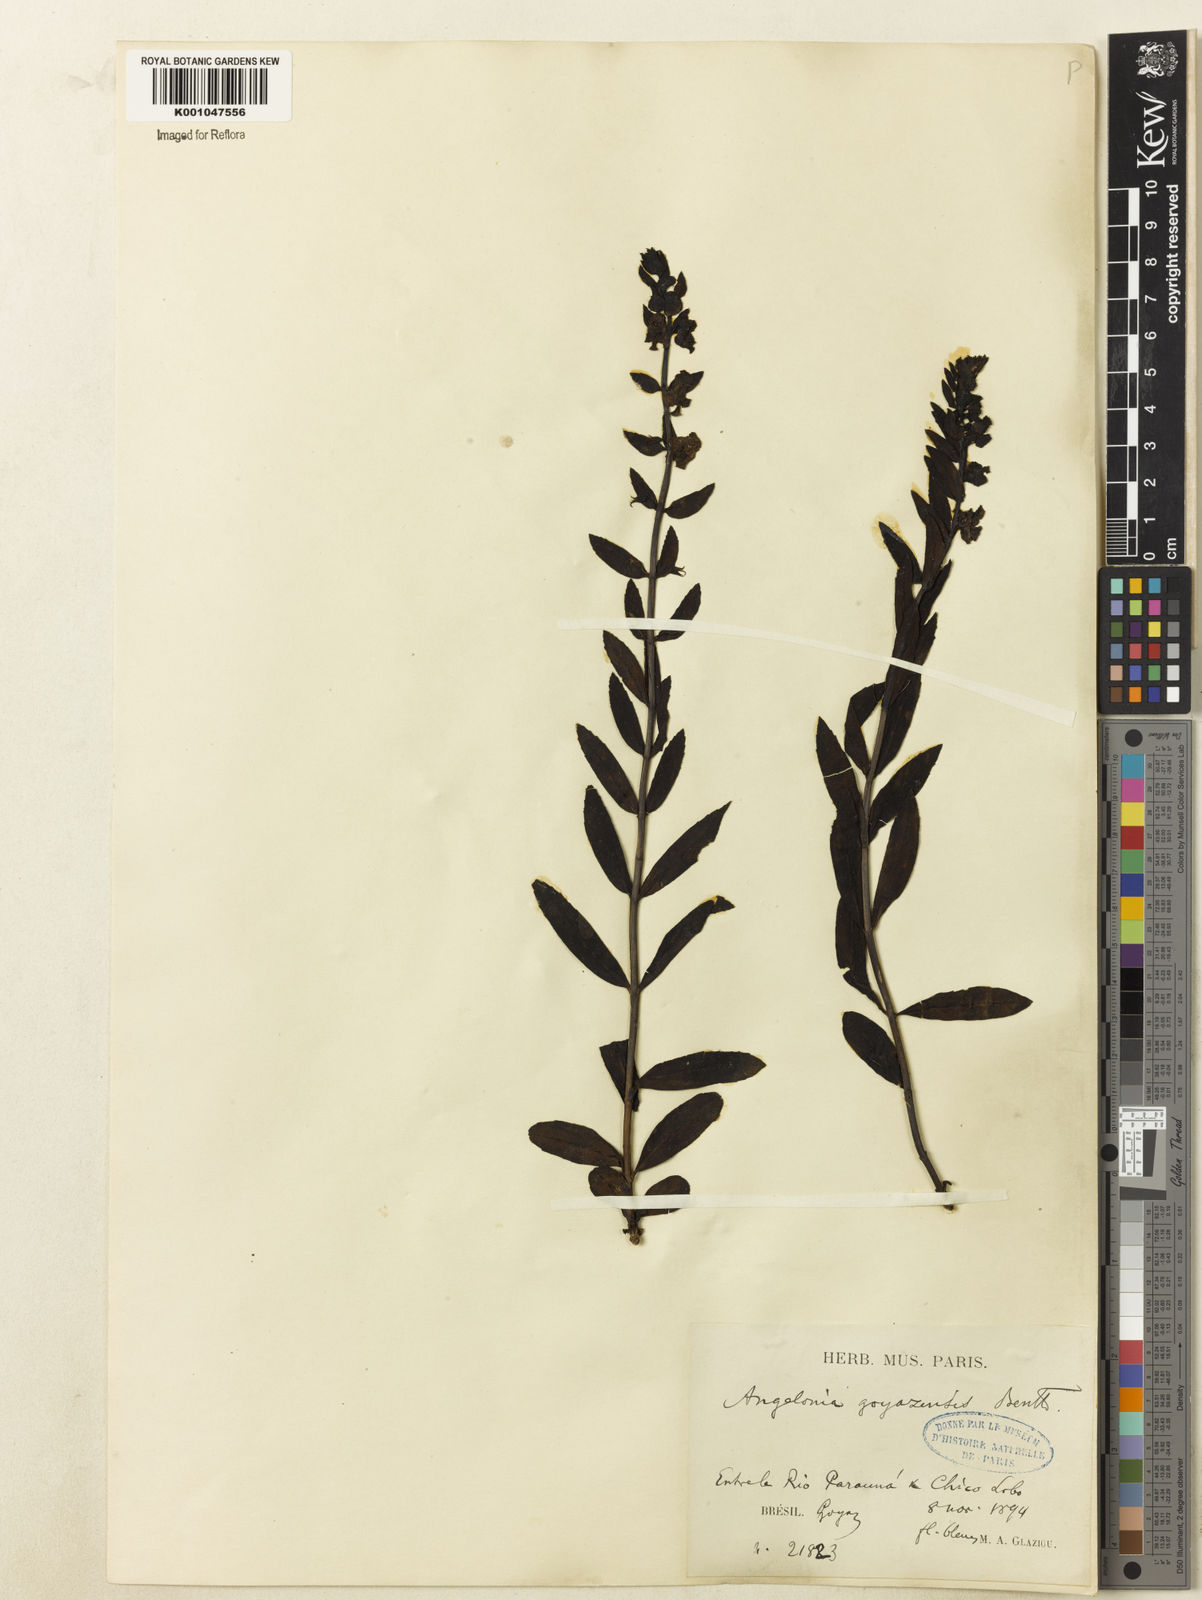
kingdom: Plantae
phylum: Tracheophyta
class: Magnoliopsida
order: Lamiales
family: Plantaginaceae
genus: Angelonia
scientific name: Angelonia goyazensis
